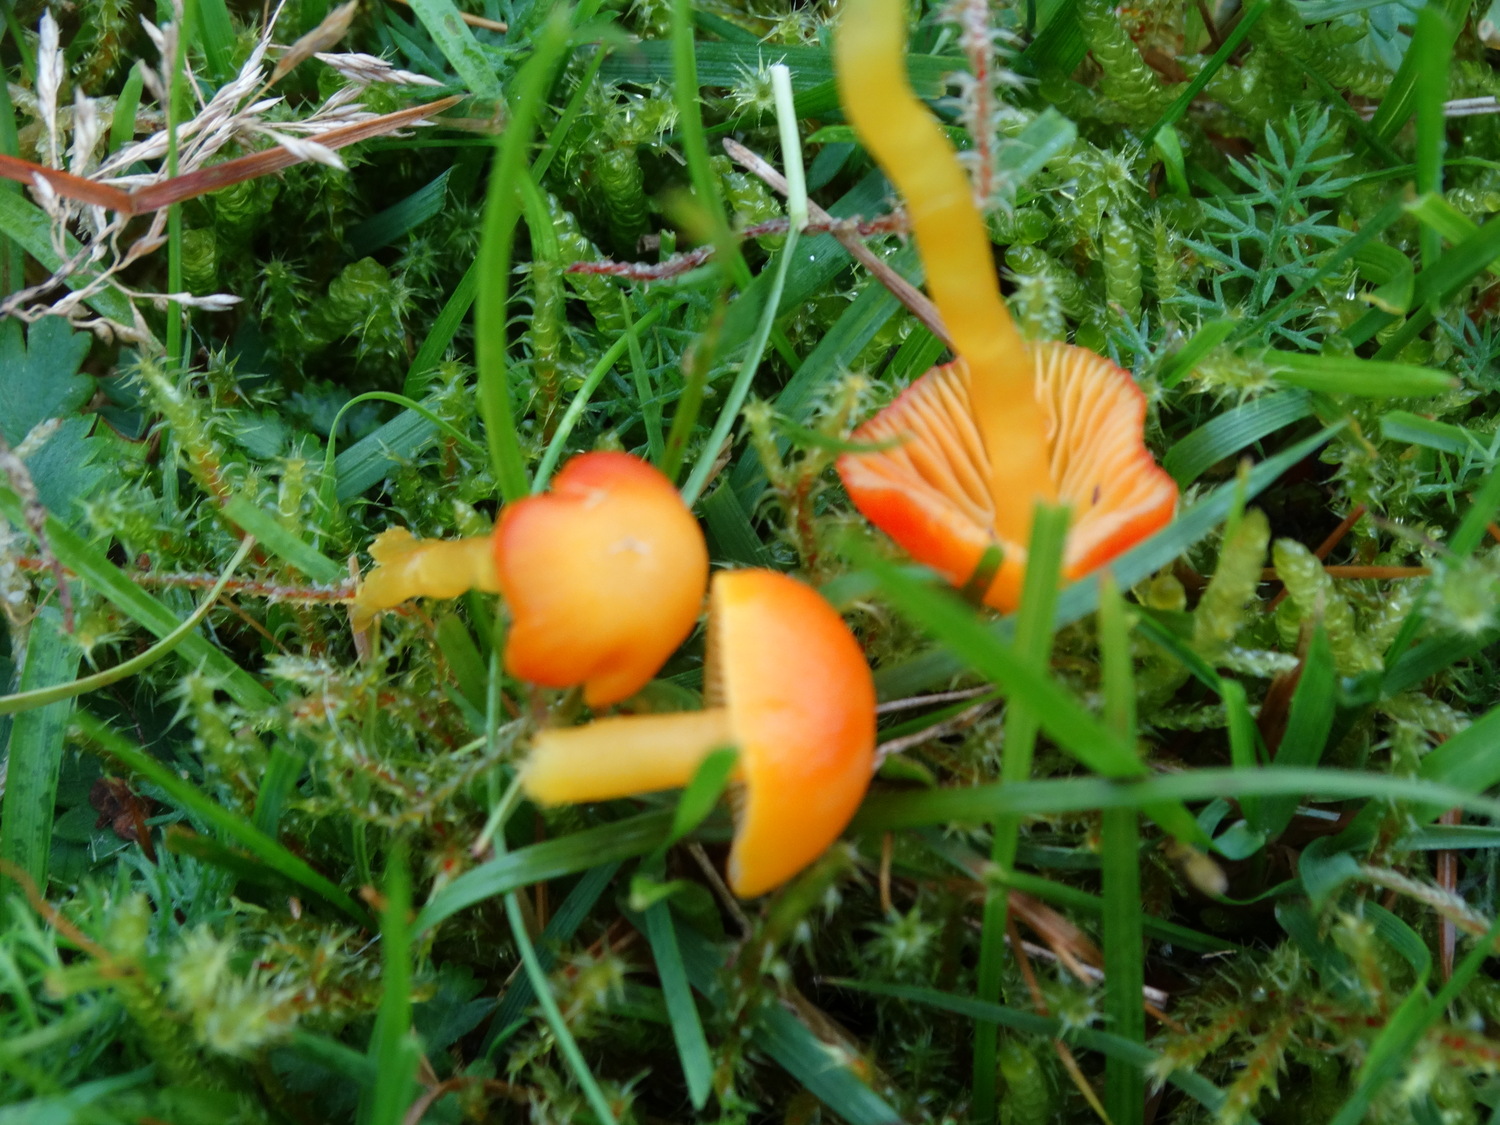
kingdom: Fungi
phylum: Basidiomycota
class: Agaricomycetes
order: Agaricales
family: Hygrophoraceae
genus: Hygrocybe
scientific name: Hygrocybe insipida
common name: liden vokshat
